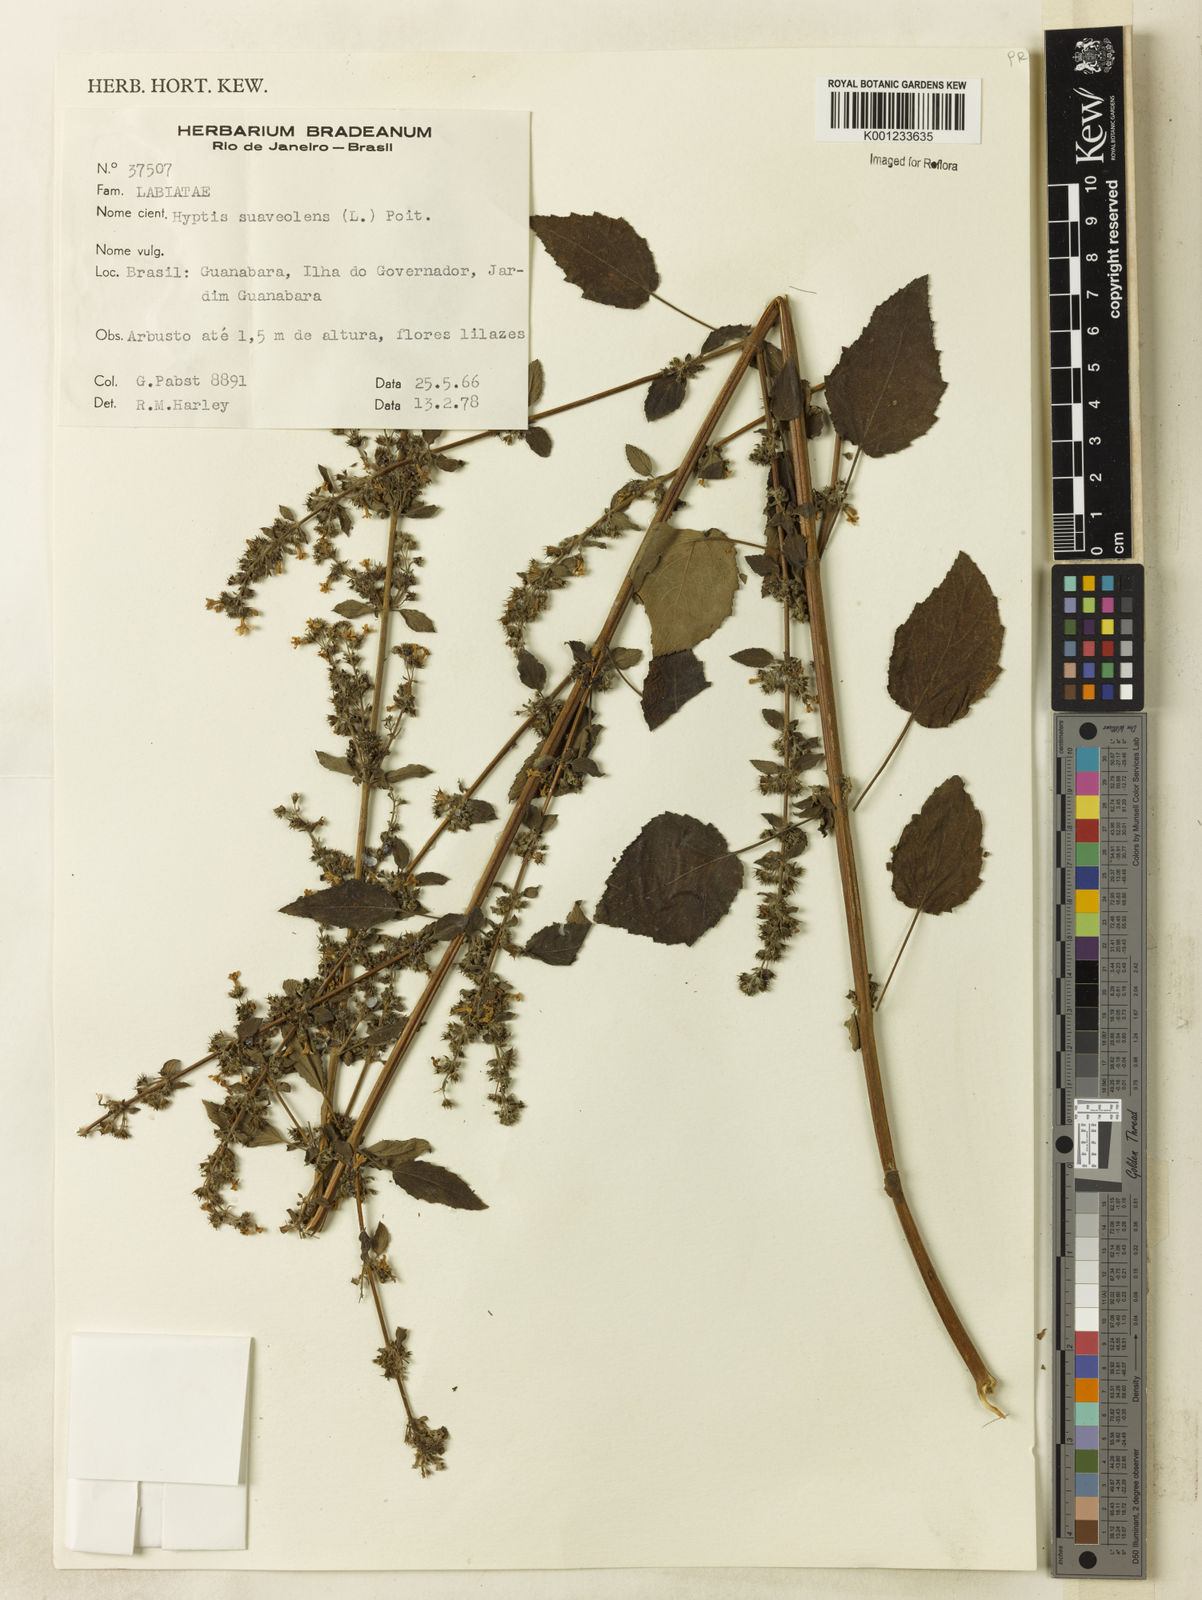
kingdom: Plantae
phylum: Tracheophyta
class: Magnoliopsida
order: Lamiales
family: Lamiaceae
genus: Mesosphaerum
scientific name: Mesosphaerum suaveolens
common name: Pignut
